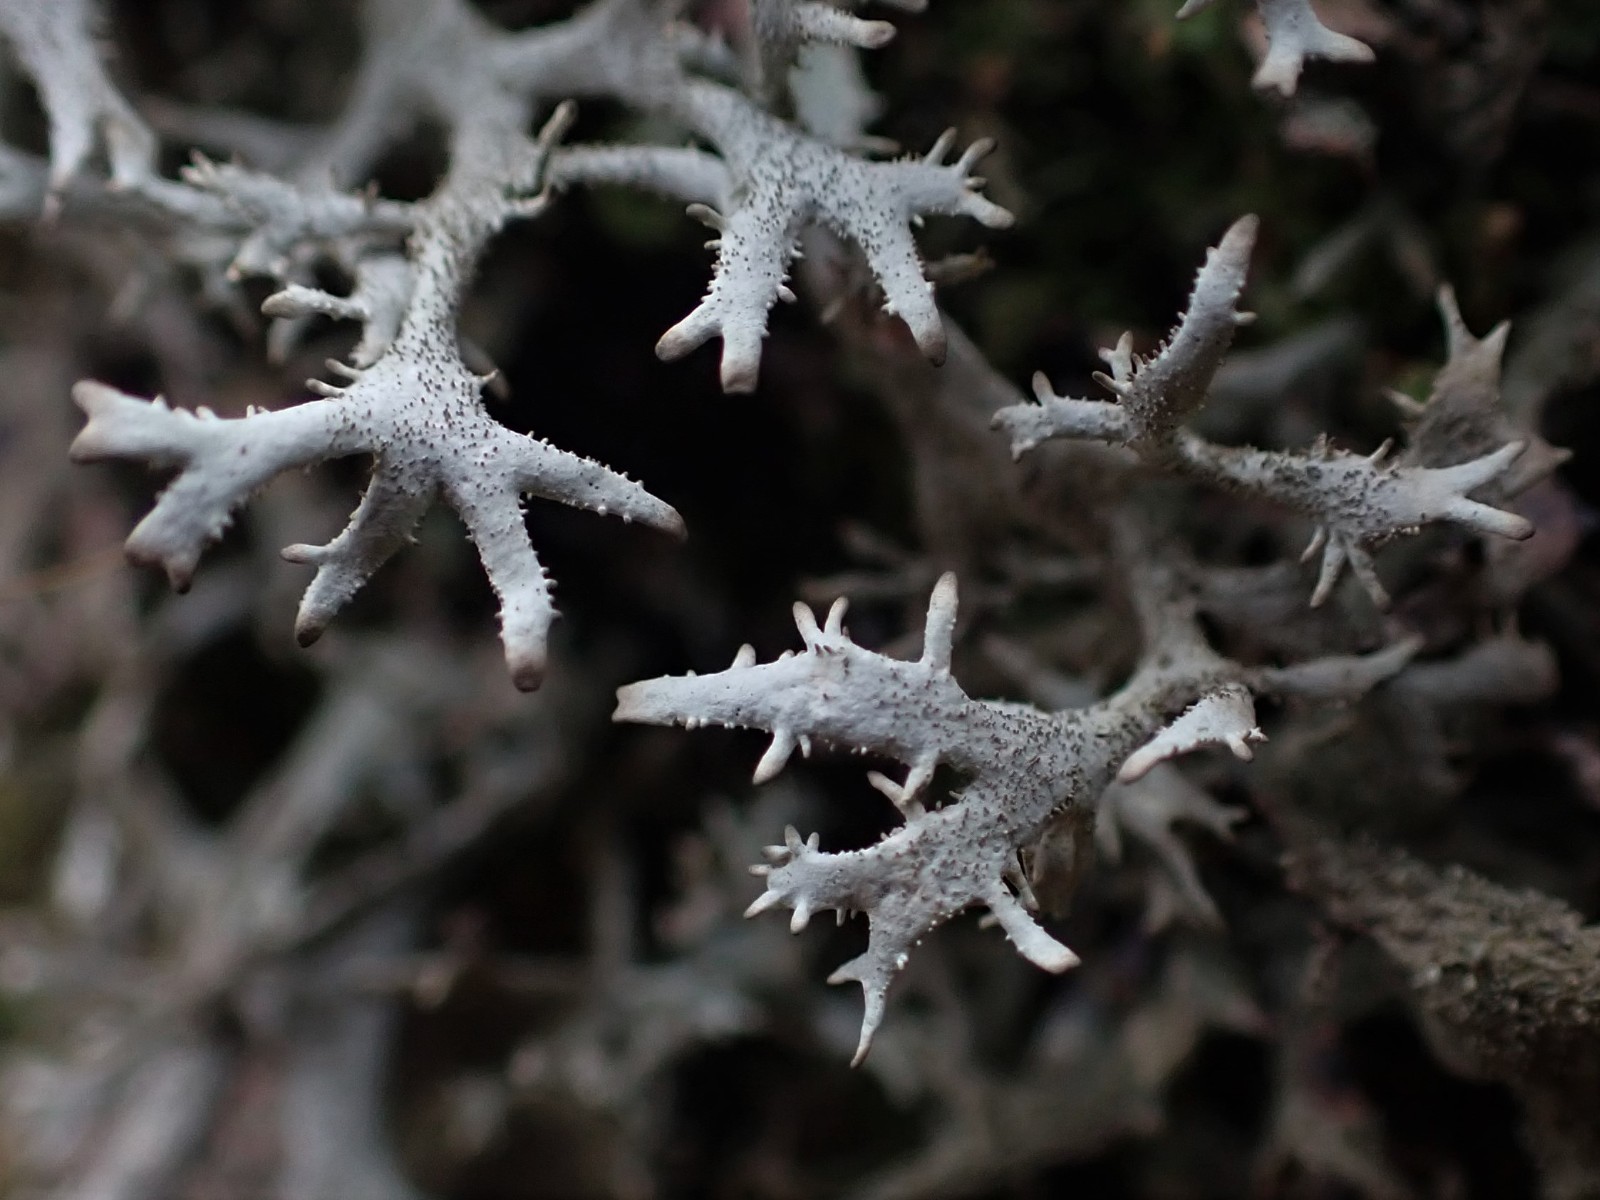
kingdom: Fungi
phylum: Ascomycota
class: Lecanoromycetes
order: Lecanorales
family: Parmeliaceae
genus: Pseudevernia
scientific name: Pseudevernia furfuracea
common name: grå fyrrelav
